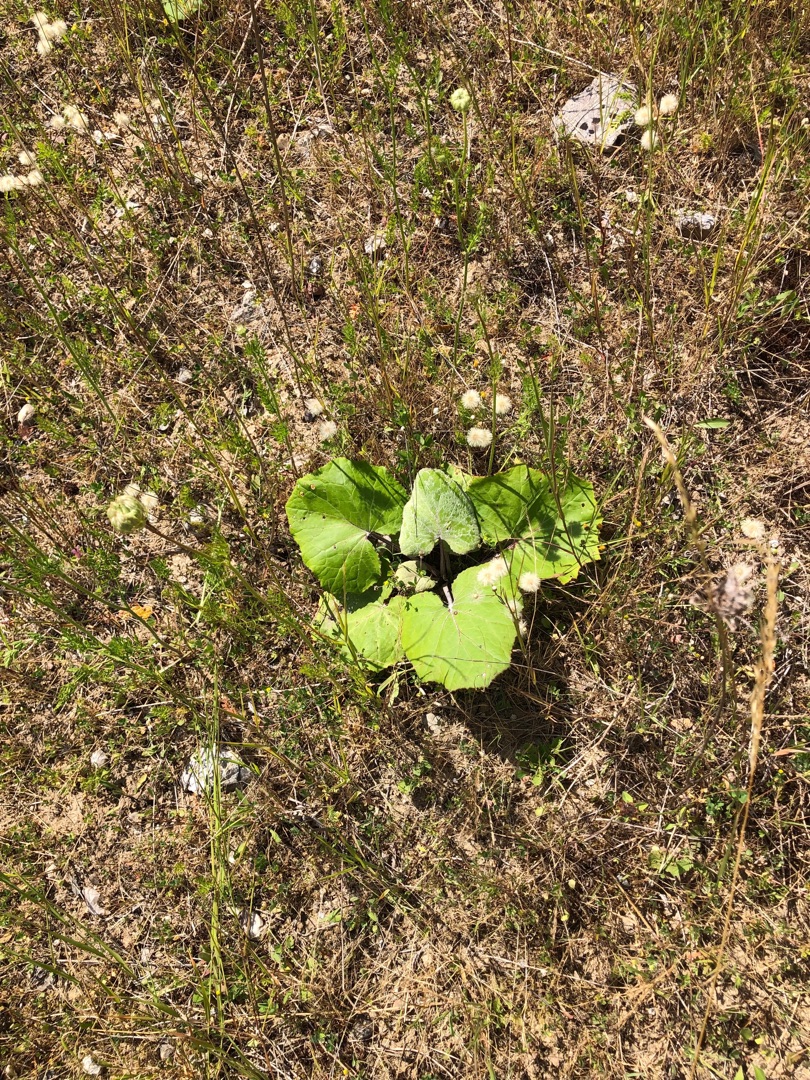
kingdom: Plantae
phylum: Tracheophyta
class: Magnoliopsida
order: Asterales
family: Asteraceae
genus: Tussilago
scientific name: Tussilago farfara
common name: Følfod
